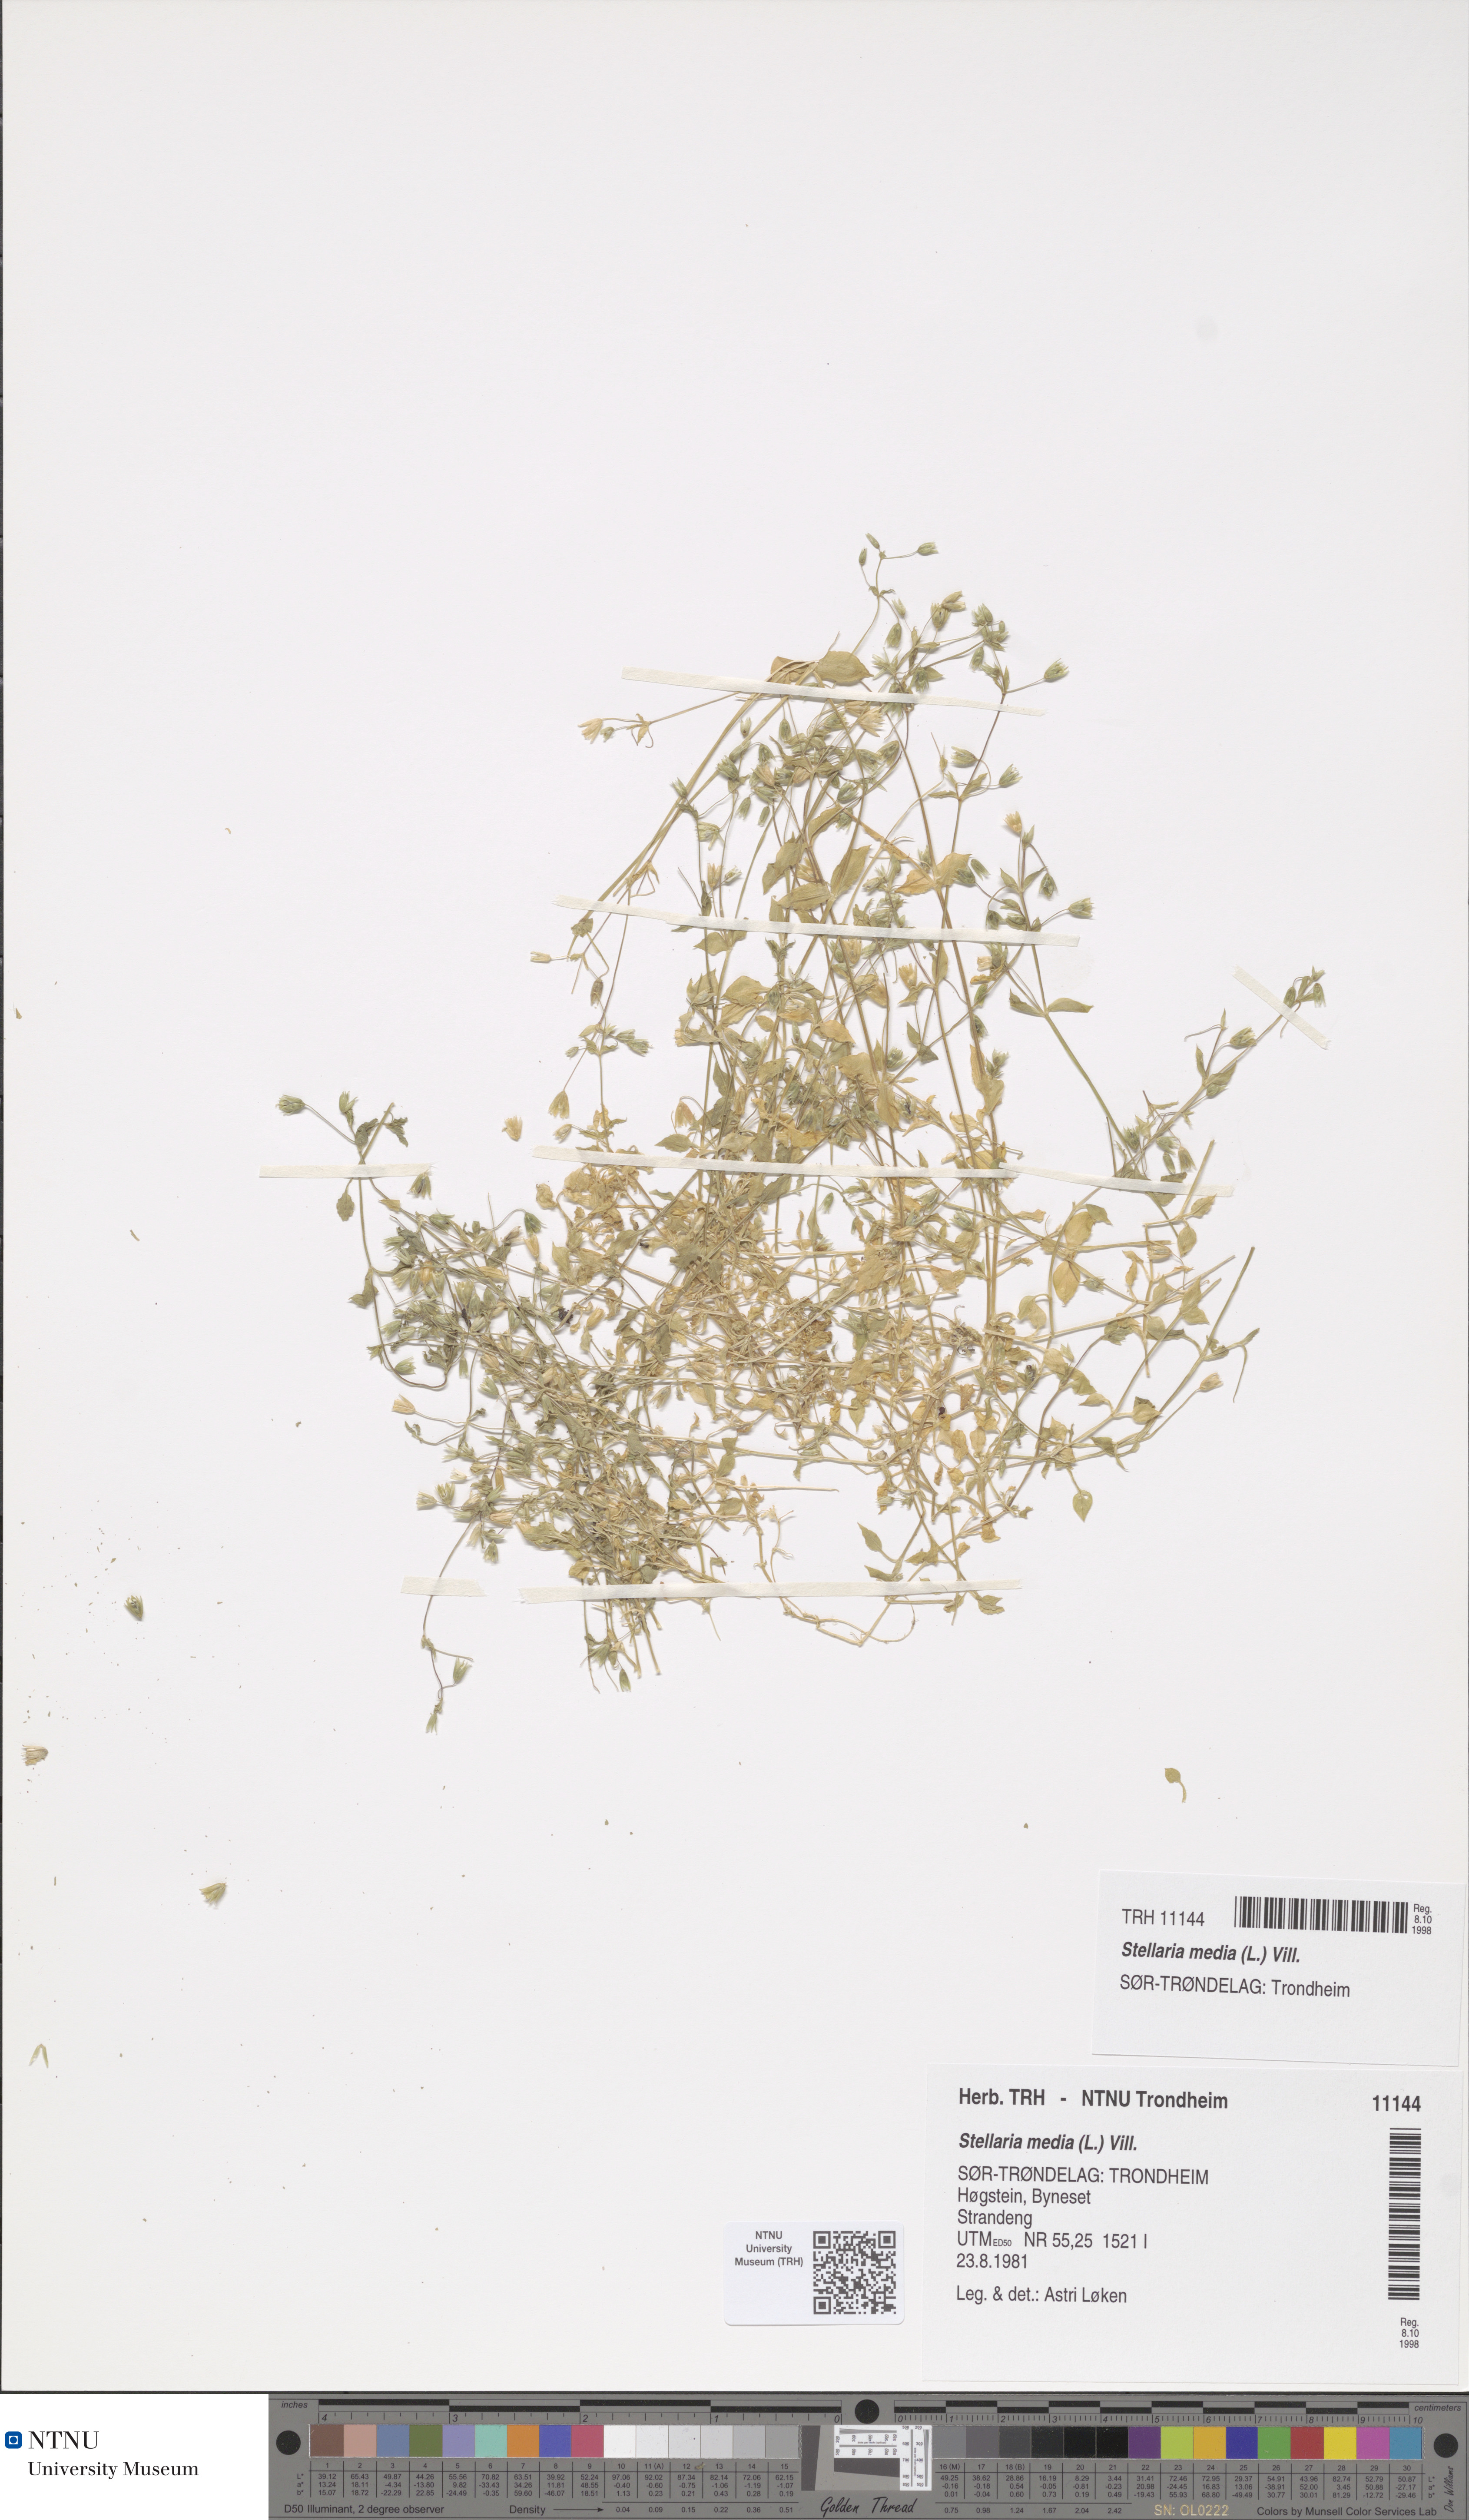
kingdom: Plantae
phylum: Tracheophyta
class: Magnoliopsida
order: Caryophyllales
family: Caryophyllaceae
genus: Stellaria
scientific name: Stellaria media
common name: Common chickweed
